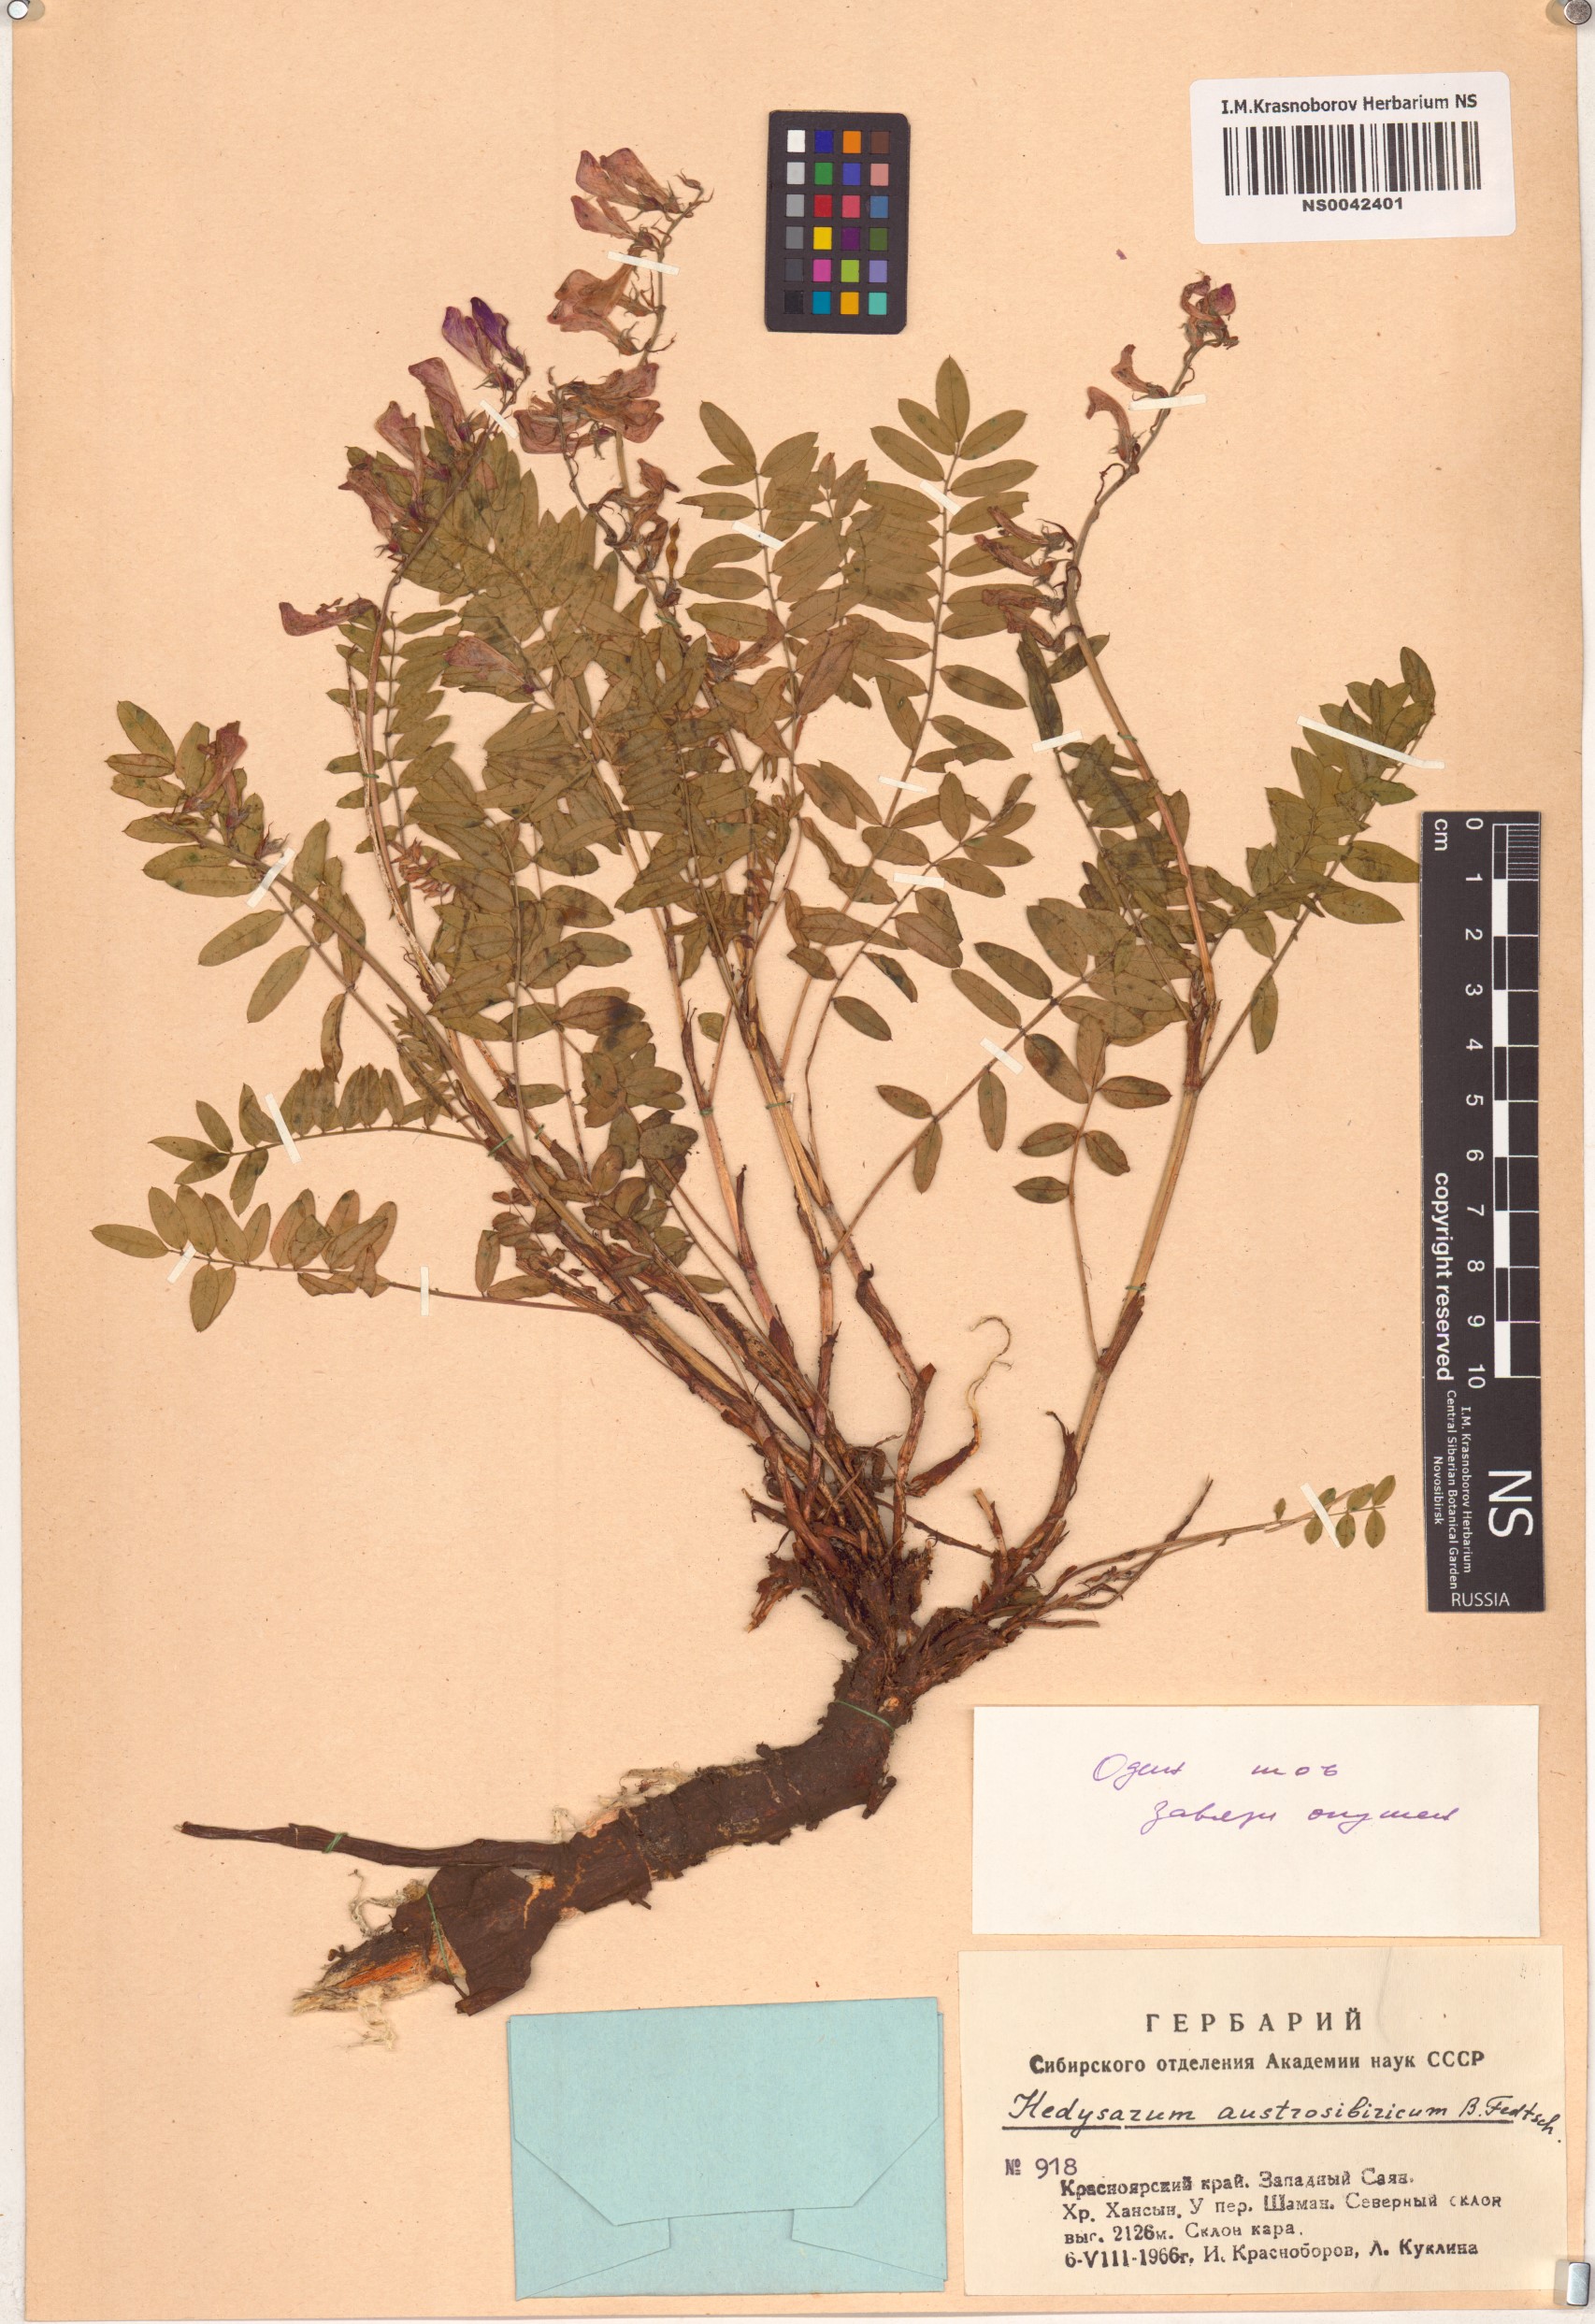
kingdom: Plantae
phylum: Tracheophyta
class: Magnoliopsida
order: Fabales
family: Fabaceae
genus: Hedysarum
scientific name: Hedysarum neglectum
